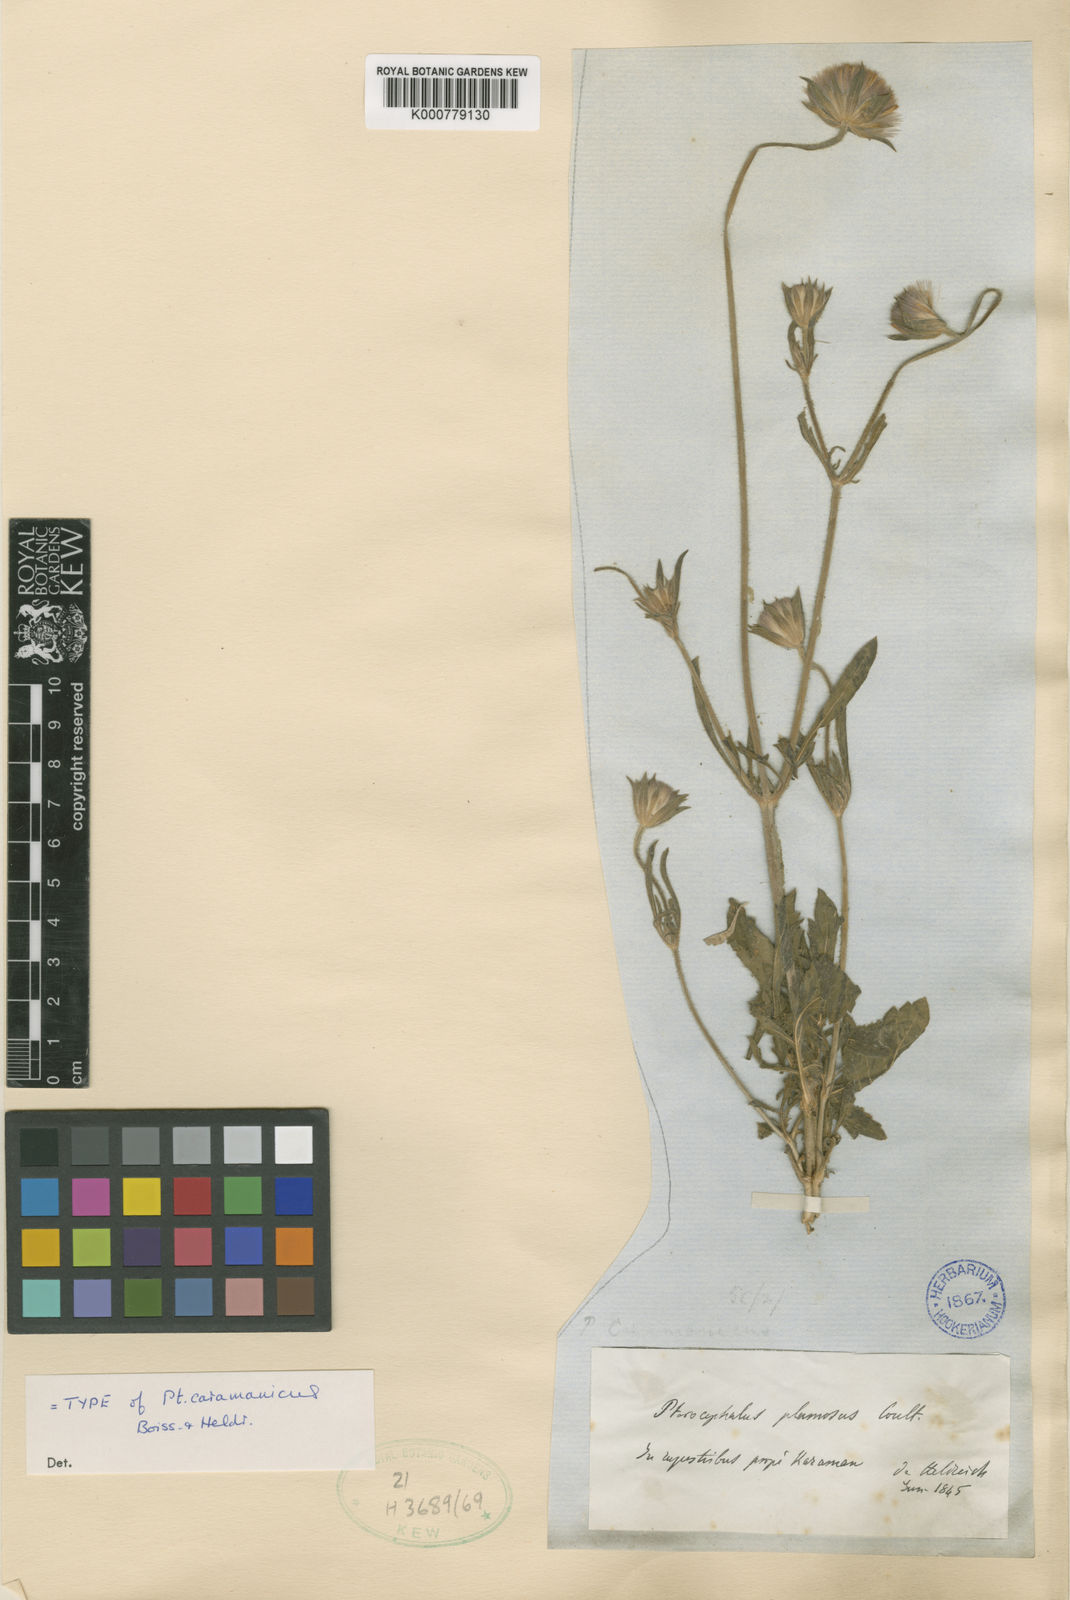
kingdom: Plantae
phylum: Tracheophyta
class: Magnoliopsida
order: Dipsacales
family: Caprifoliaceae
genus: Pterocephalus
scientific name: Pterocephalus plumosus
